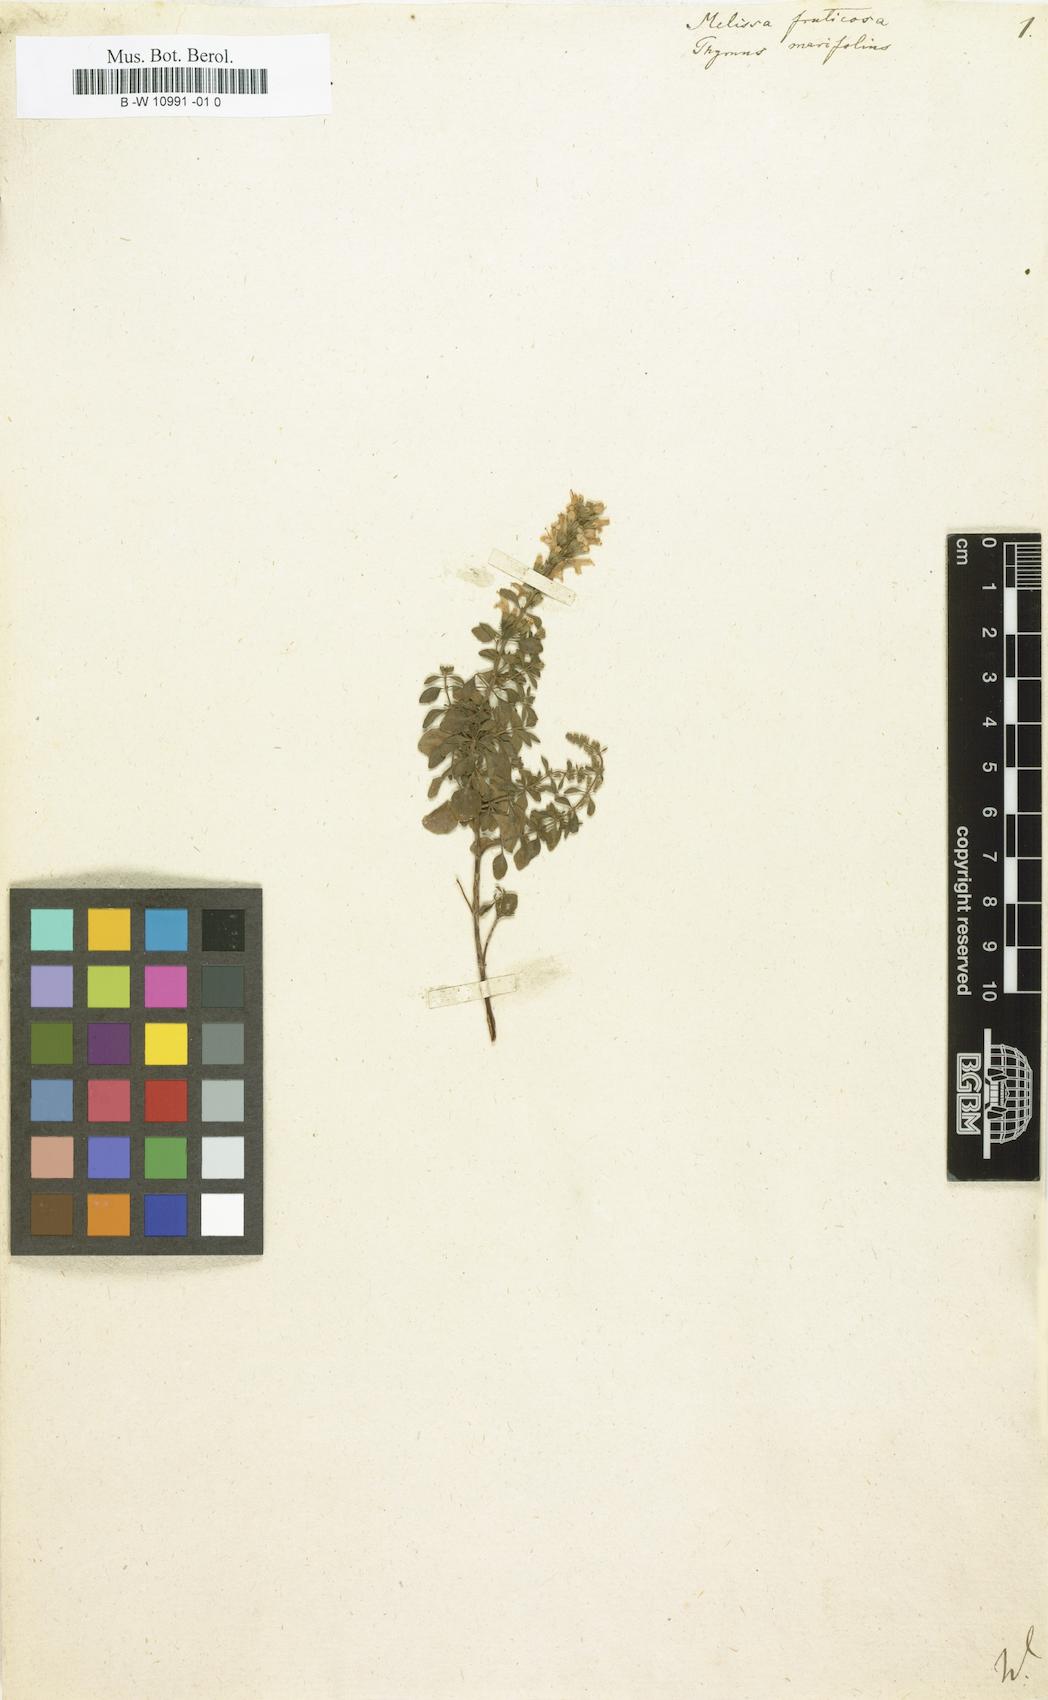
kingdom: Plantae
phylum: Tracheophyta
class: Magnoliopsida
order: Lamiales
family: Lamiaceae
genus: Melissa
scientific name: Melissa fruticosa
